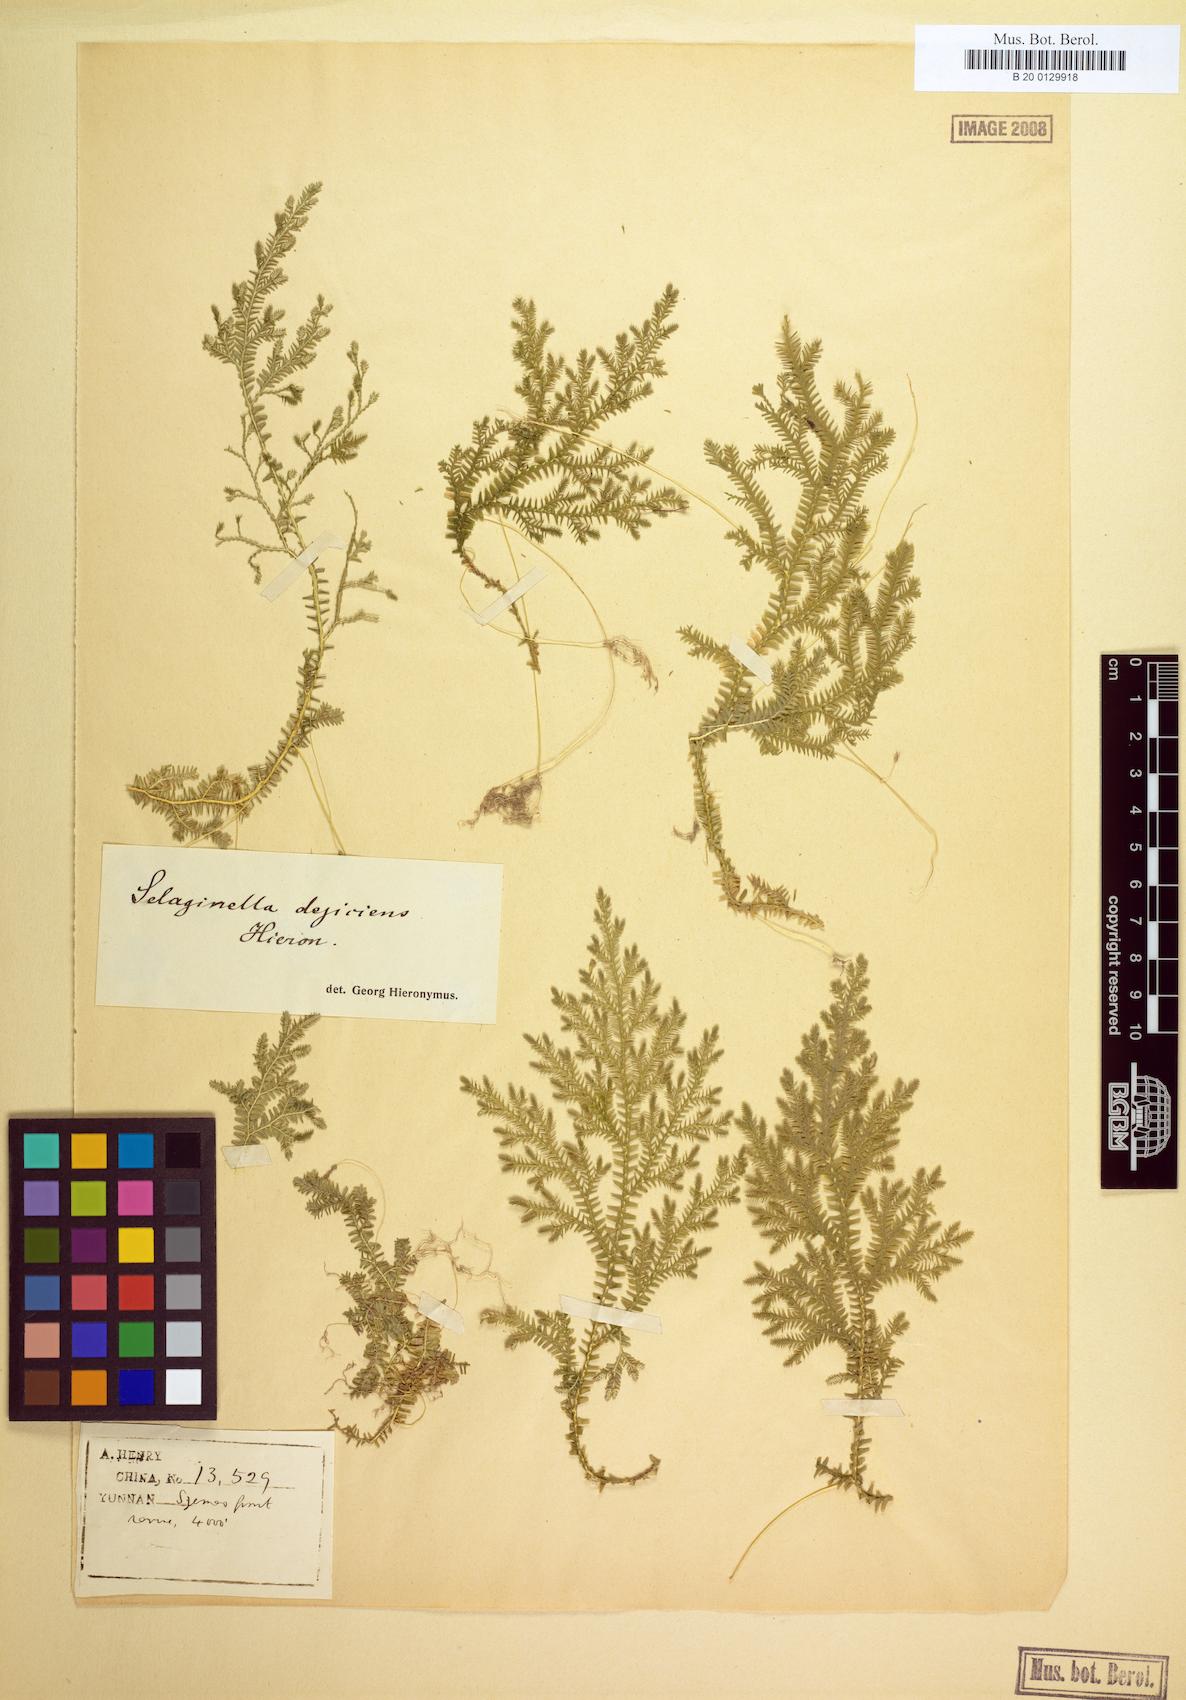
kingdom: Plantae
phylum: Tracheophyta
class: Lycopodiopsida
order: Selaginellales
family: Selaginellaceae
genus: Selaginella
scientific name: Selaginella decipiens
